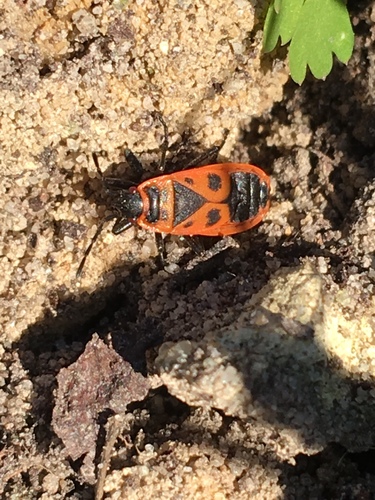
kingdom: Animalia
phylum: Arthropoda
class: Insecta
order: Hemiptera
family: Pyrrhocoridae
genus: Pyrrhocoris
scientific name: Pyrrhocoris apterus
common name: Firebug
